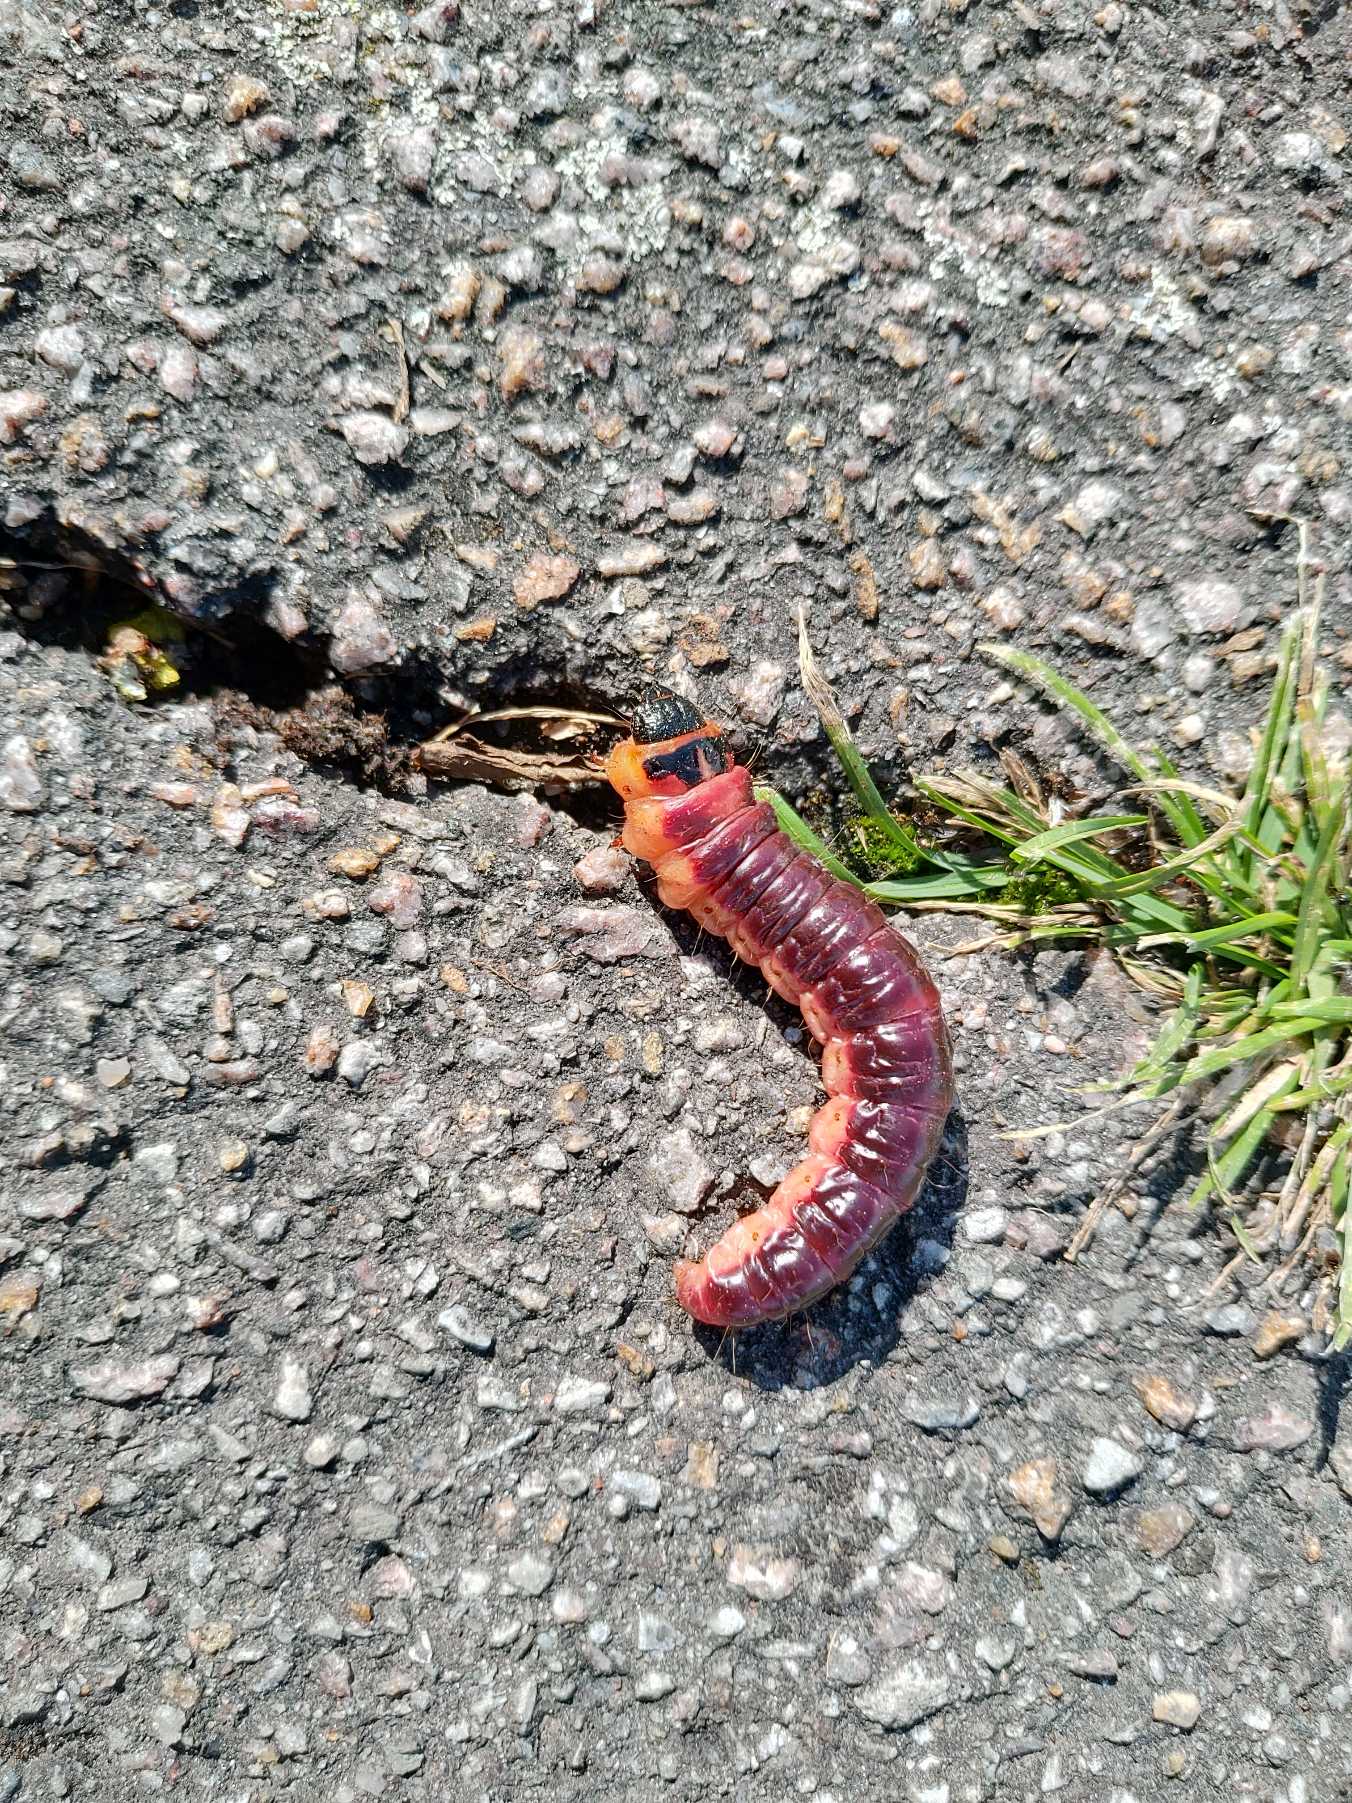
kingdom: Animalia
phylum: Arthropoda
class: Insecta
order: Lepidoptera
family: Cossidae
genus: Cossus
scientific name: Cossus cossus
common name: Pileborer
